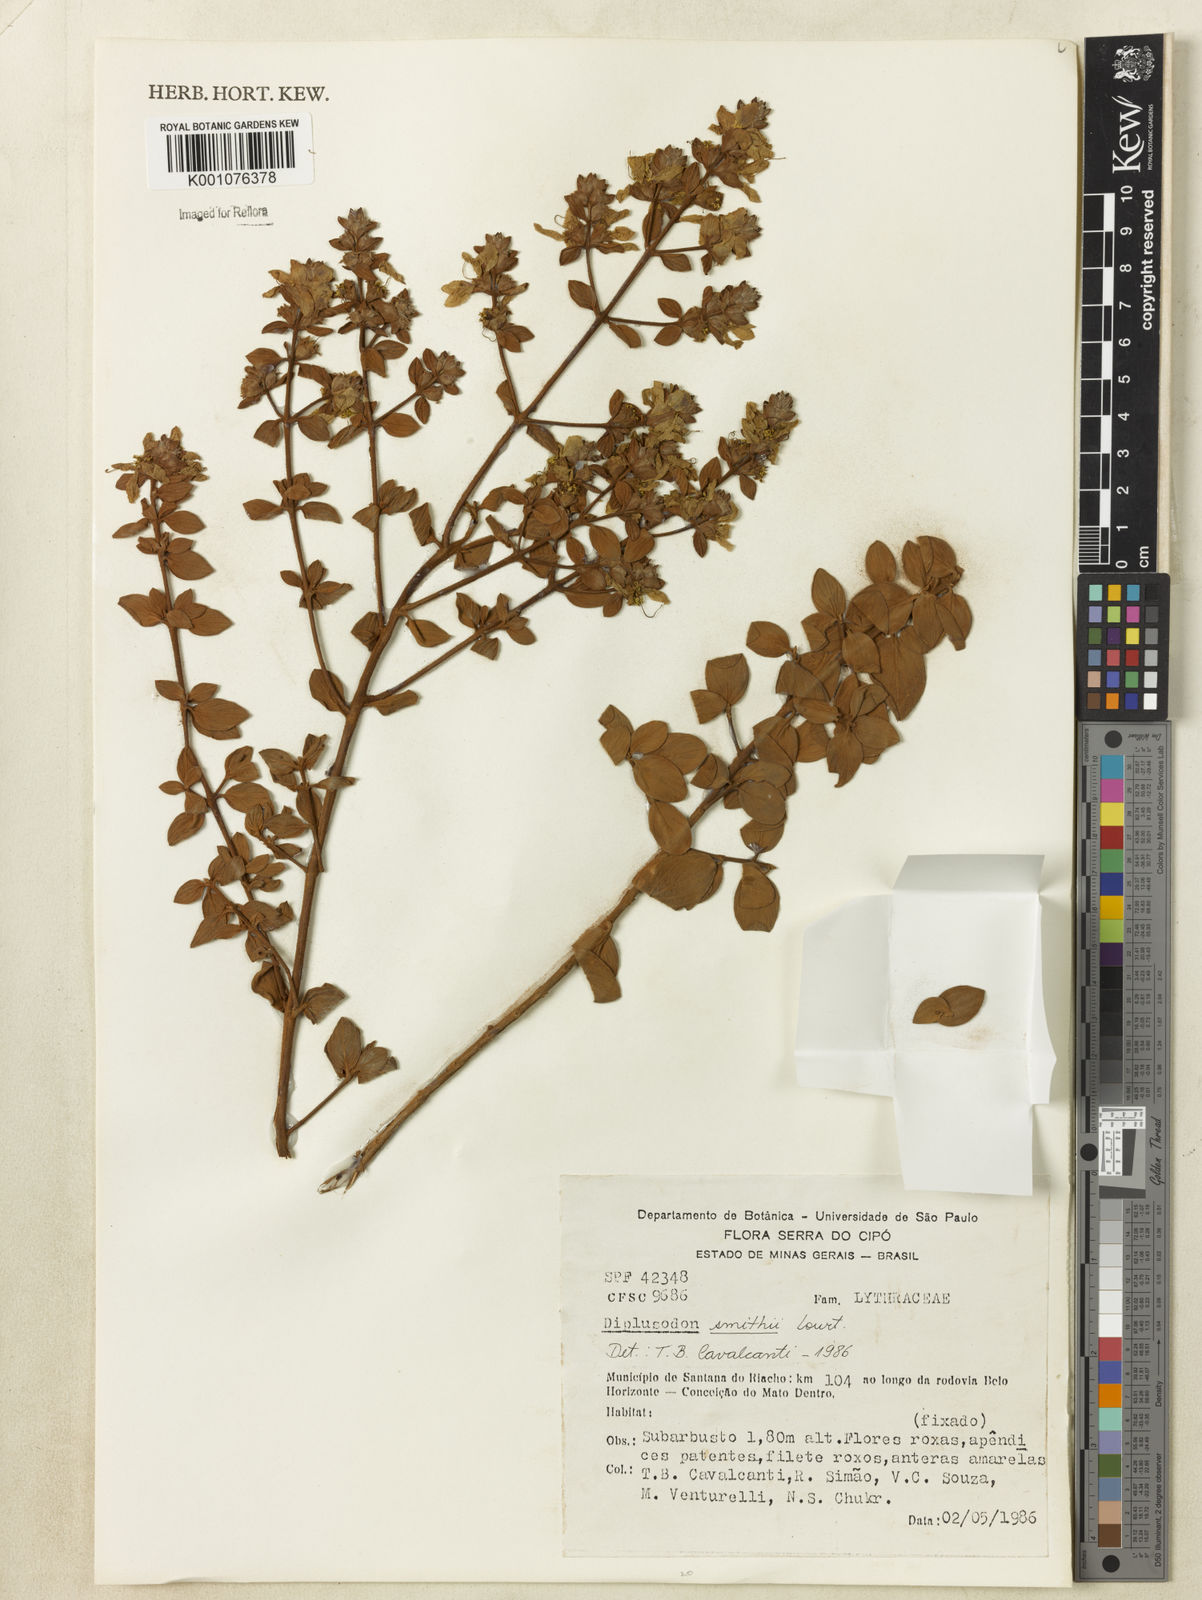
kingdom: Plantae
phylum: Tracheophyta
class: Magnoliopsida
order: Myrtales
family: Lythraceae
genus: Diplusodon
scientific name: Diplusodon hirsutus
